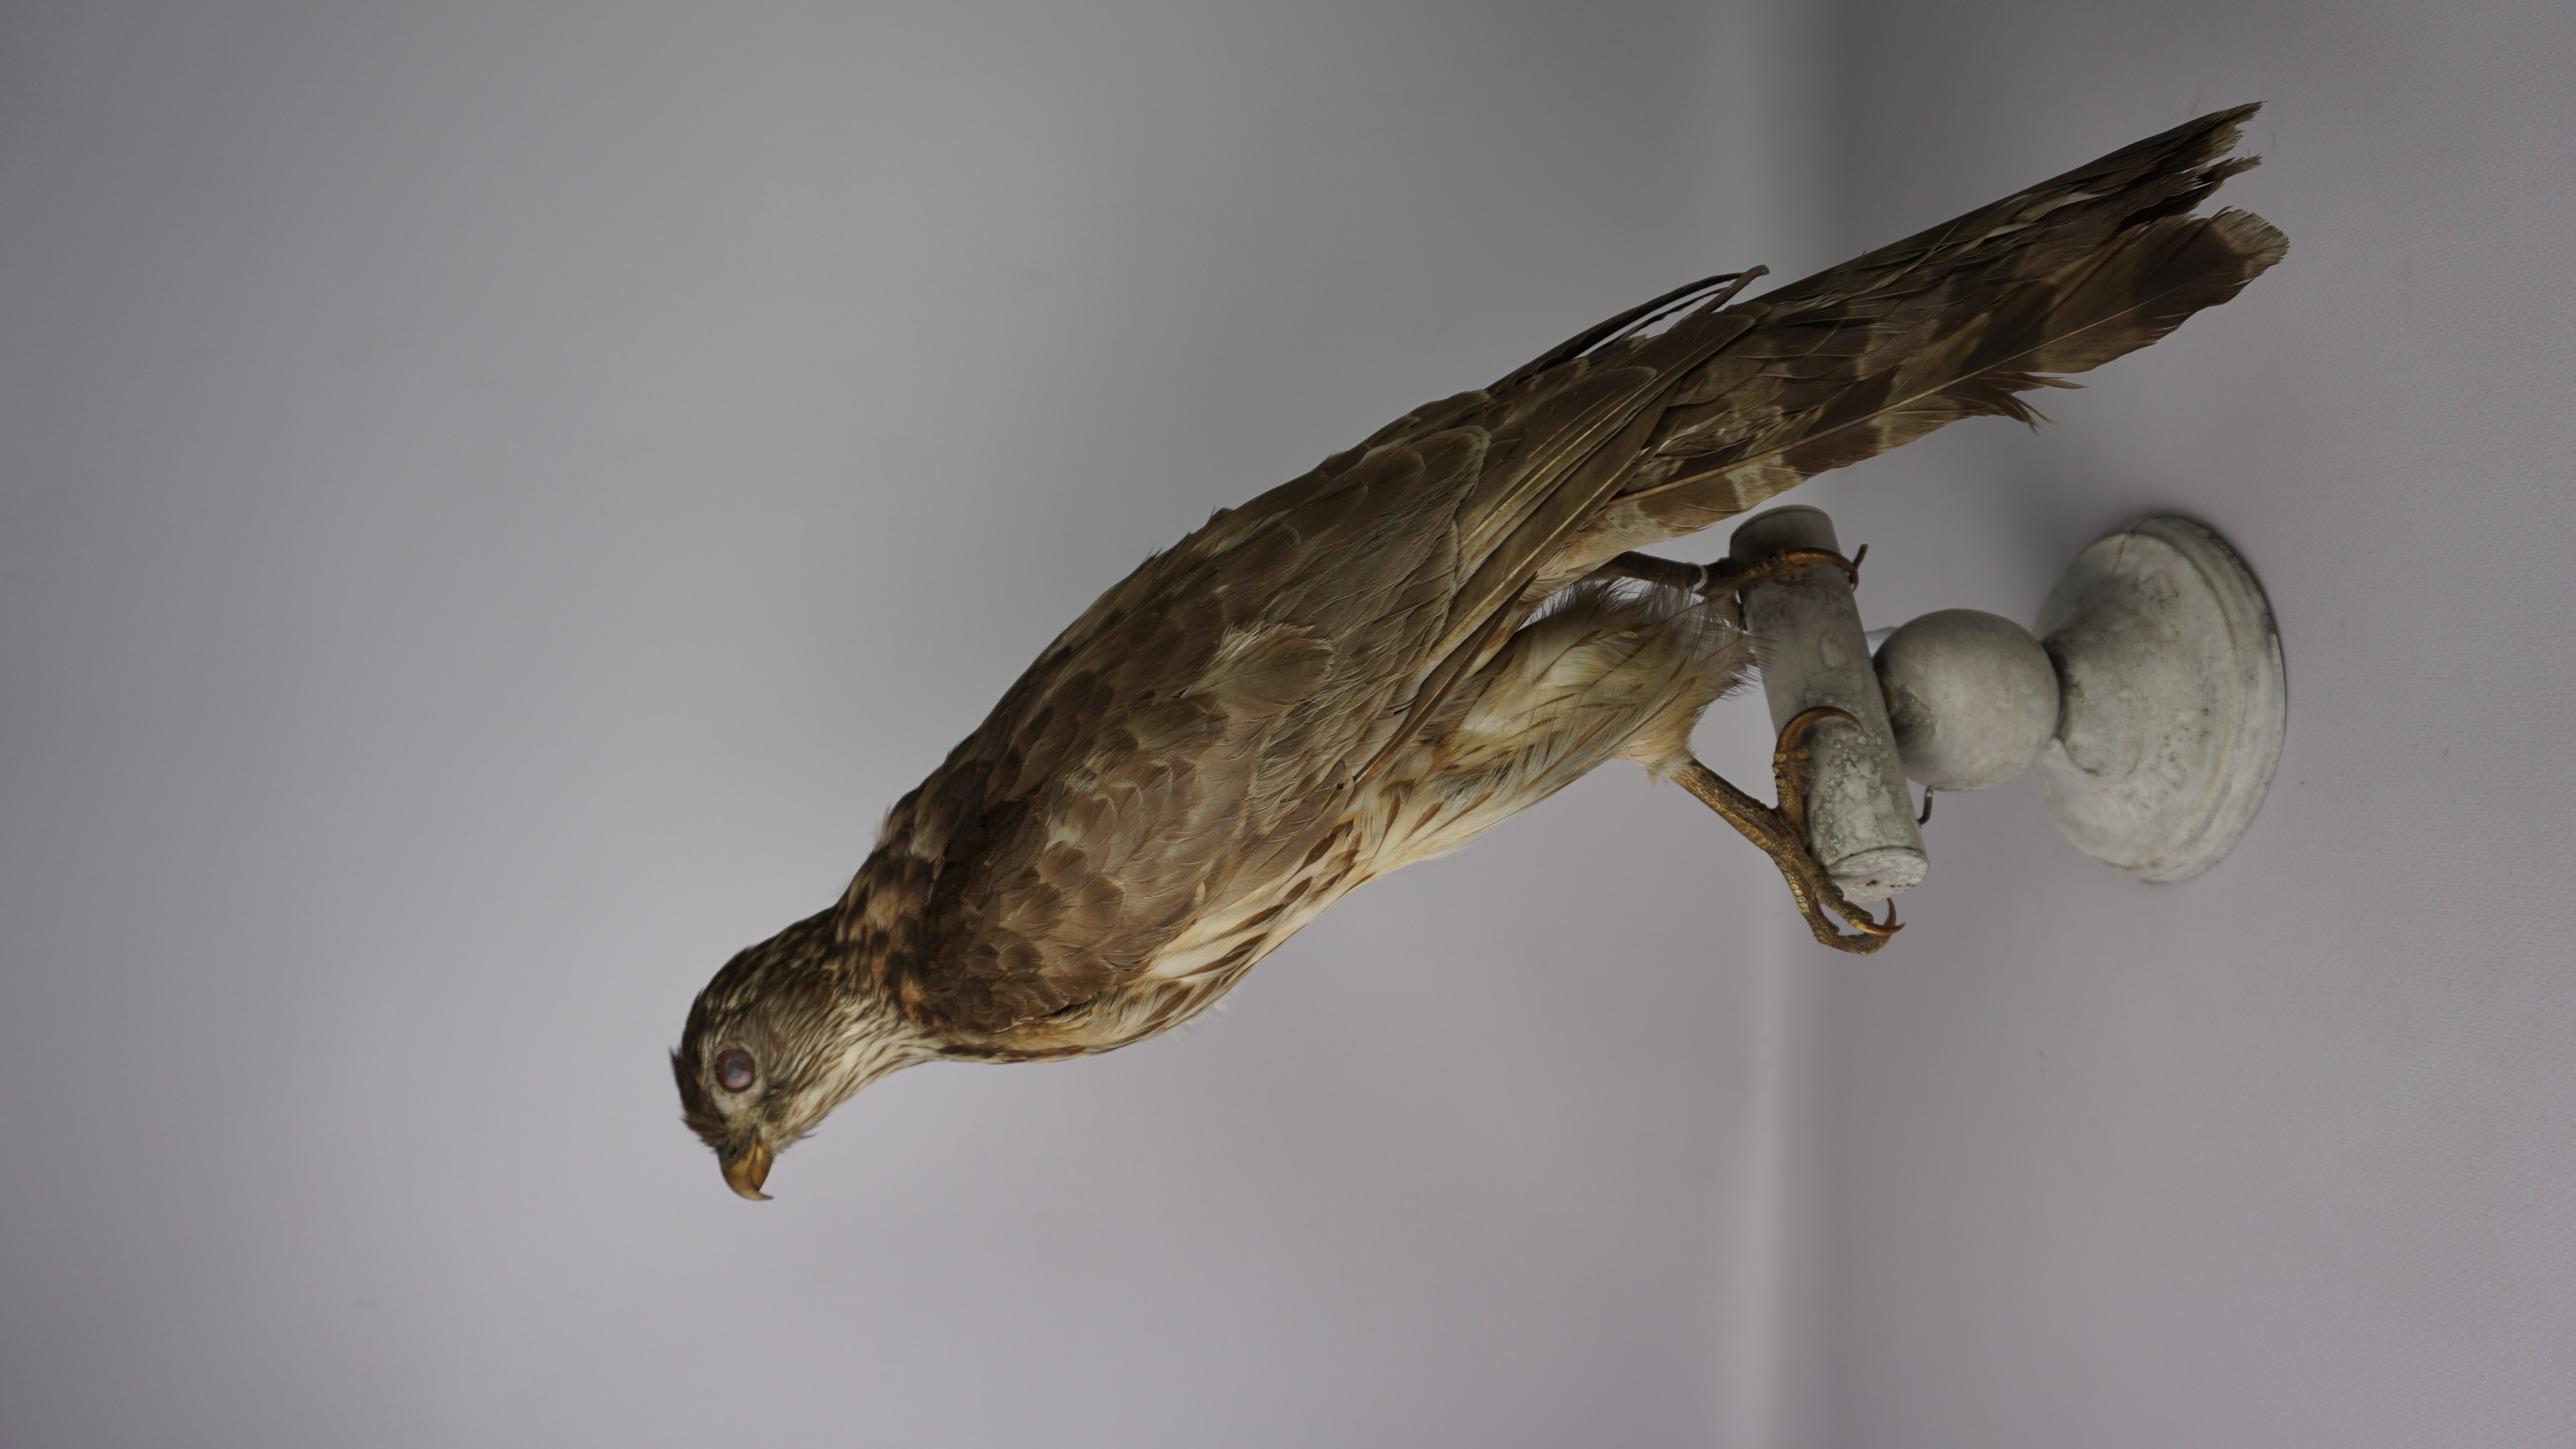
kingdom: Animalia
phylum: Chordata
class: Aves
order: Accipitriformes
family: Accipitridae
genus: Accipiter
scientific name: Accipiter gentilis
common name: Northern goshawk
